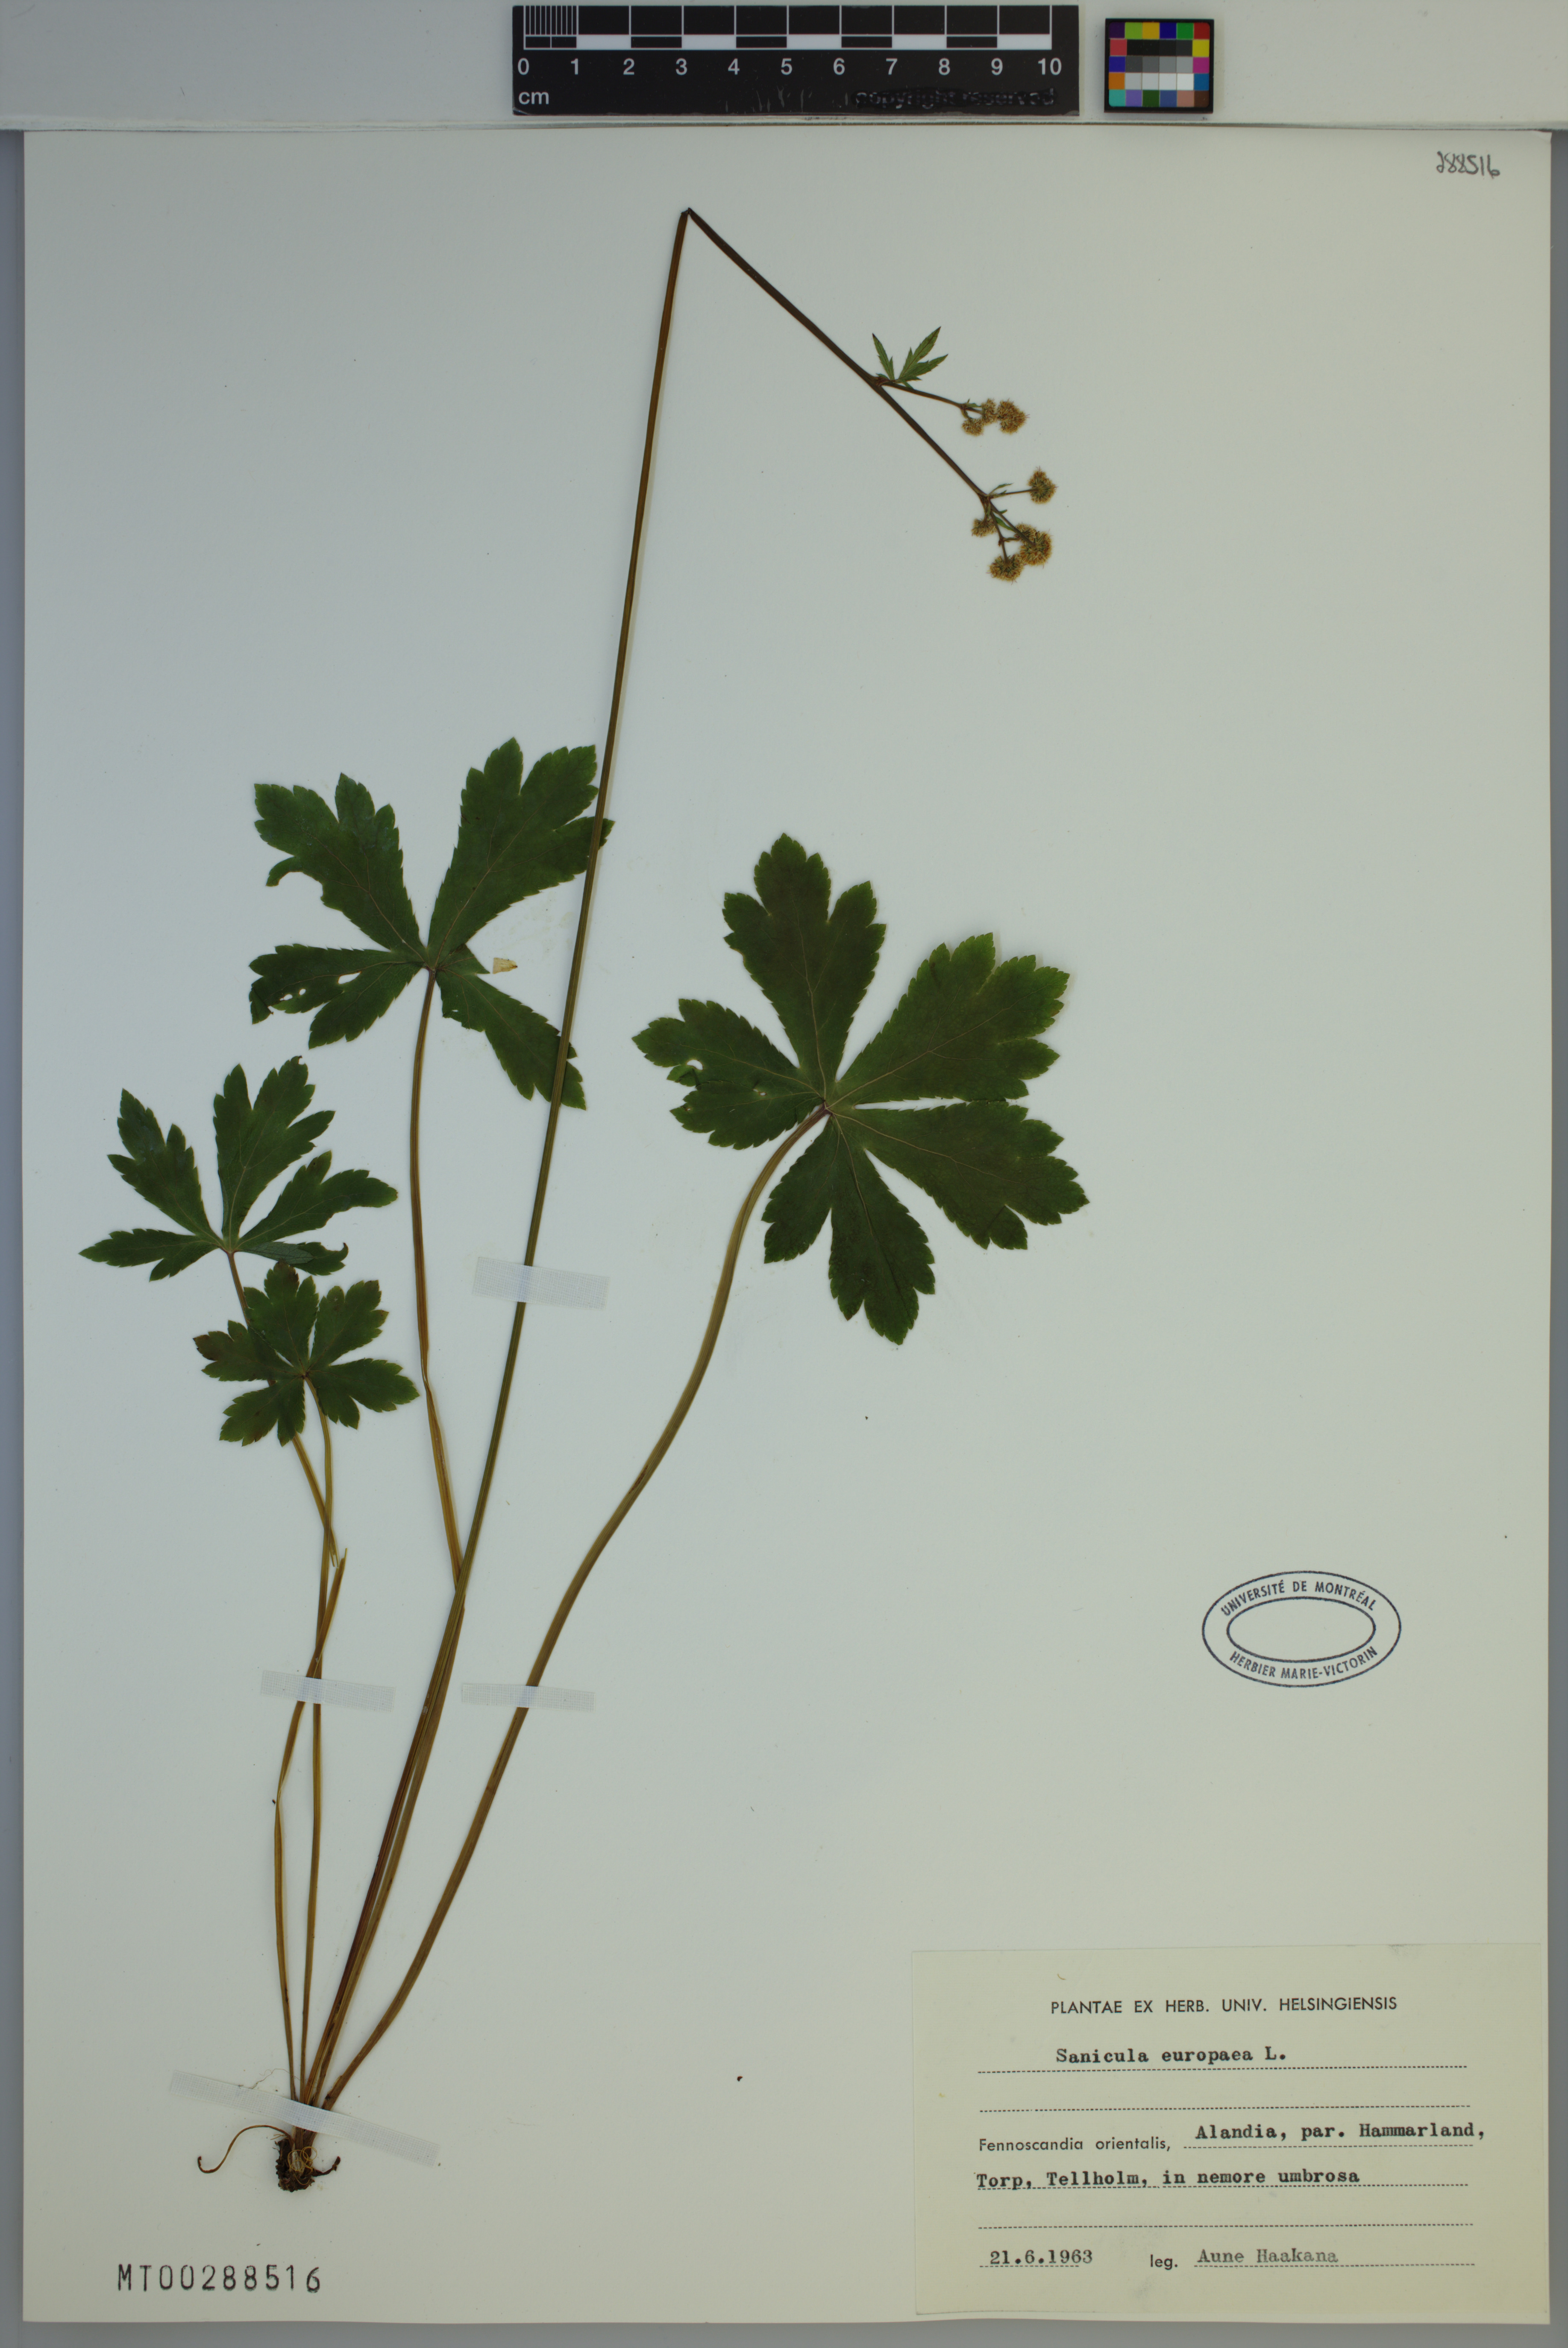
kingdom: Plantae
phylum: Tracheophyta
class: Magnoliopsida
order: Apiales
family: Apiaceae
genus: Sanicula
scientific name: Sanicula europaea
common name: Sanicle
